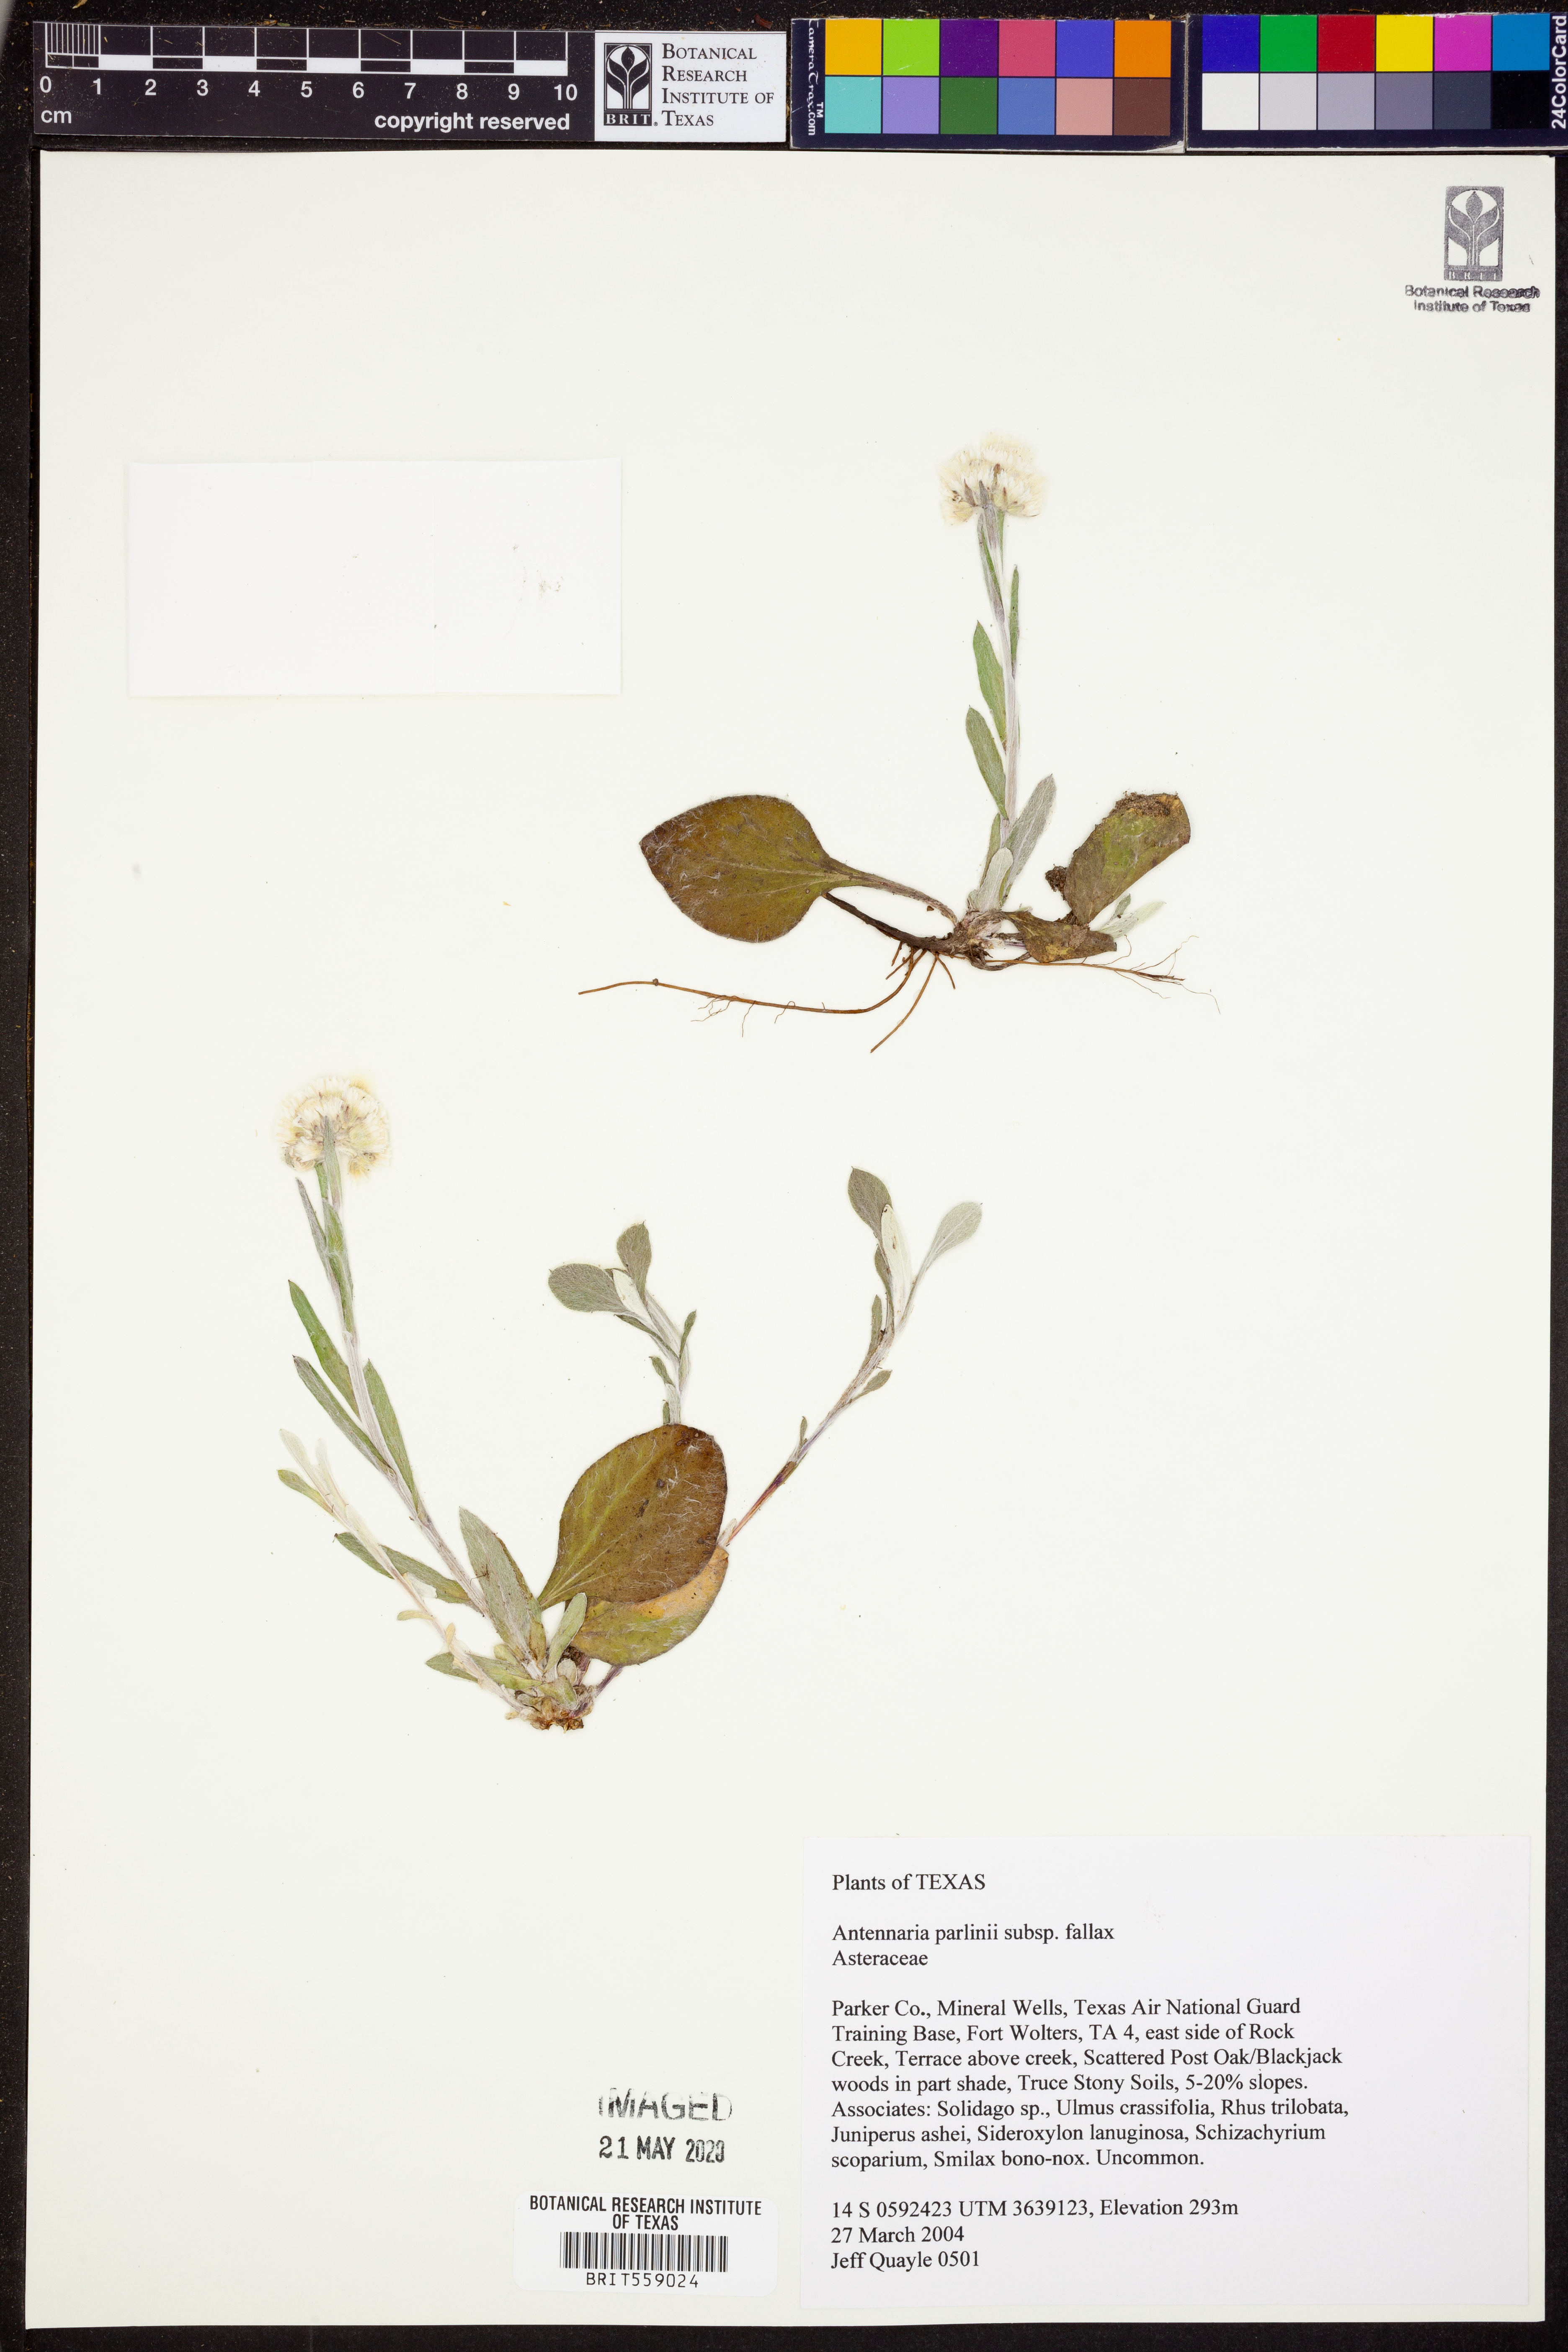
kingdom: Plantae
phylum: Tracheophyta
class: Magnoliopsida
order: Asterales
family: Asteraceae
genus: Antennaria
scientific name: Antennaria parlinii
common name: Parlin's pussytoes
